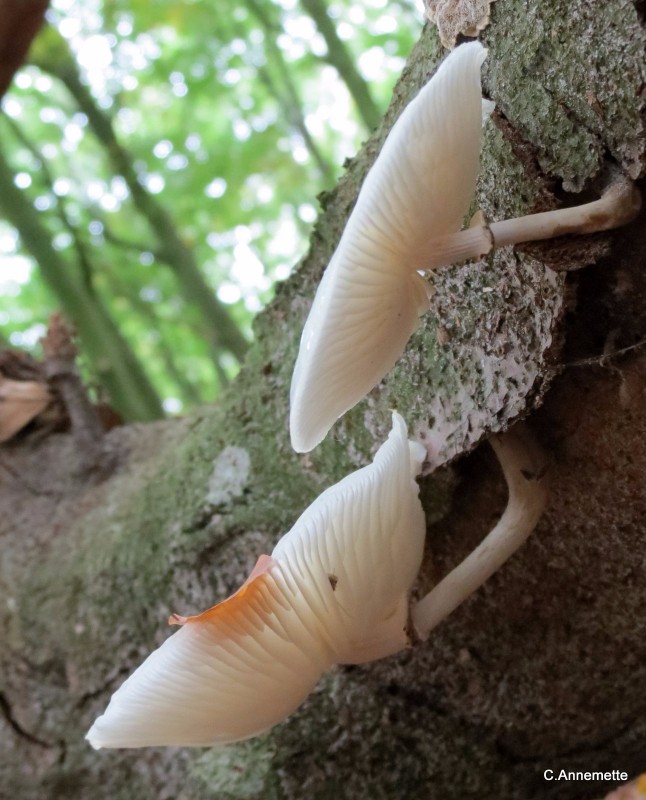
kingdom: Fungi
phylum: Basidiomycota
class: Agaricomycetes
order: Agaricales
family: Physalacriaceae
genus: Mucidula
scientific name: Mucidula mucida
